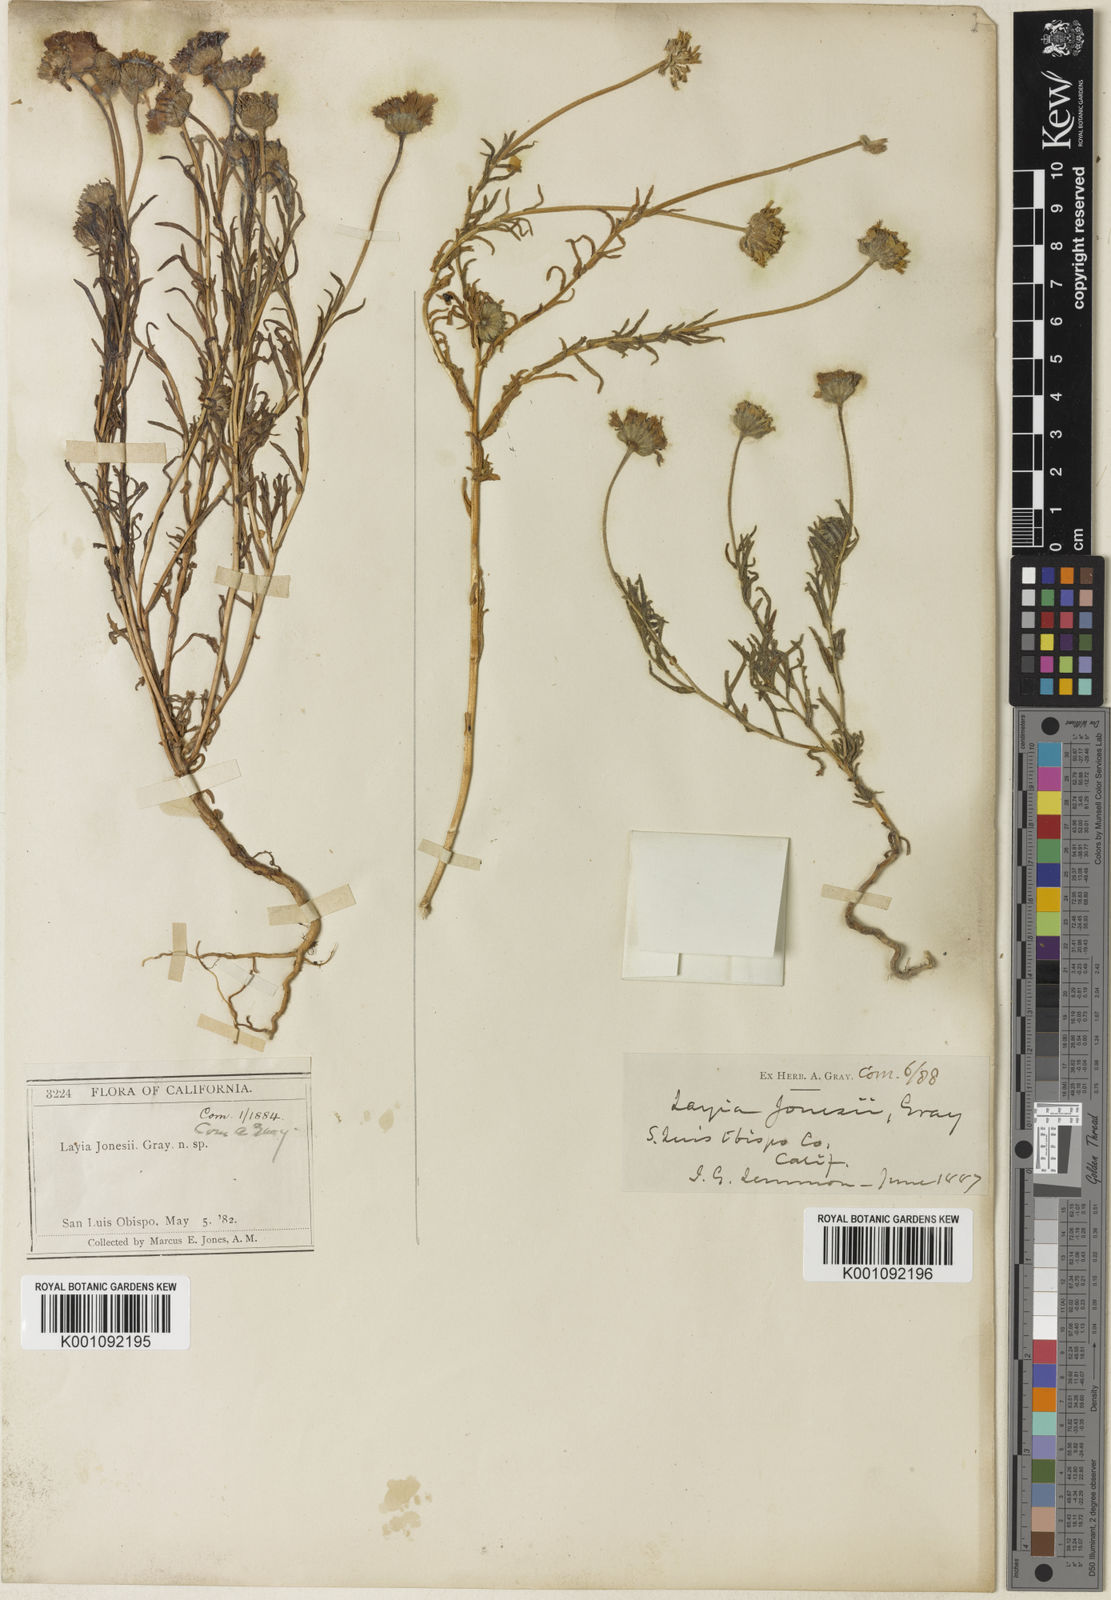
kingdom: Plantae
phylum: Tracheophyta
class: Magnoliopsida
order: Asterales
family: Asteraceae
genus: Layia
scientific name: Layia jonesii
